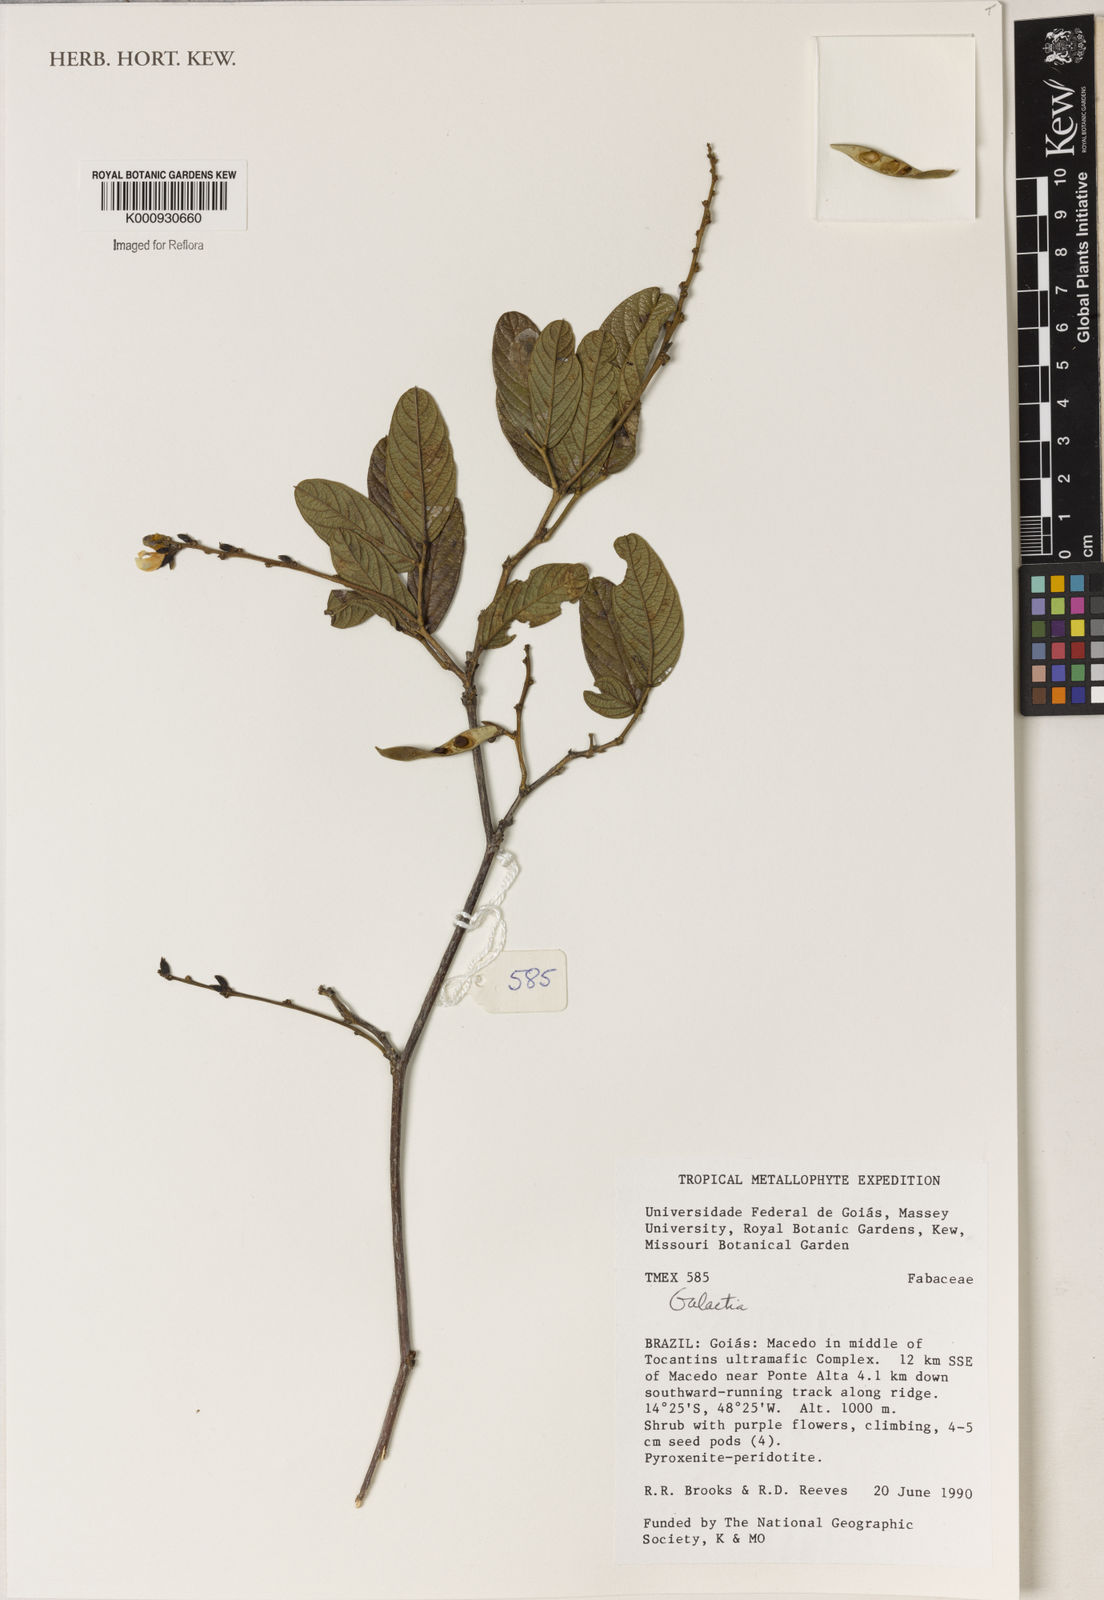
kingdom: Plantae
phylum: Tracheophyta
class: Magnoliopsida
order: Fabales
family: Fabaceae
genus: Galactia
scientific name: Galactia
